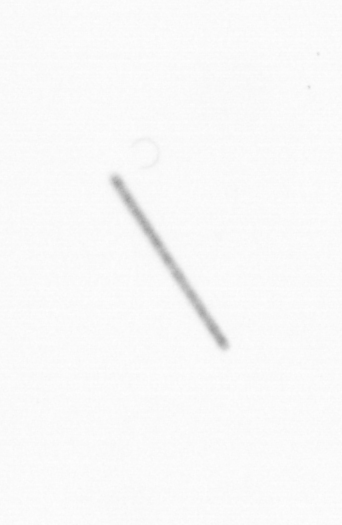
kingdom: Chromista
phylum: Ochrophyta
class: Bacillariophyceae
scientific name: Bacillariophyceae
